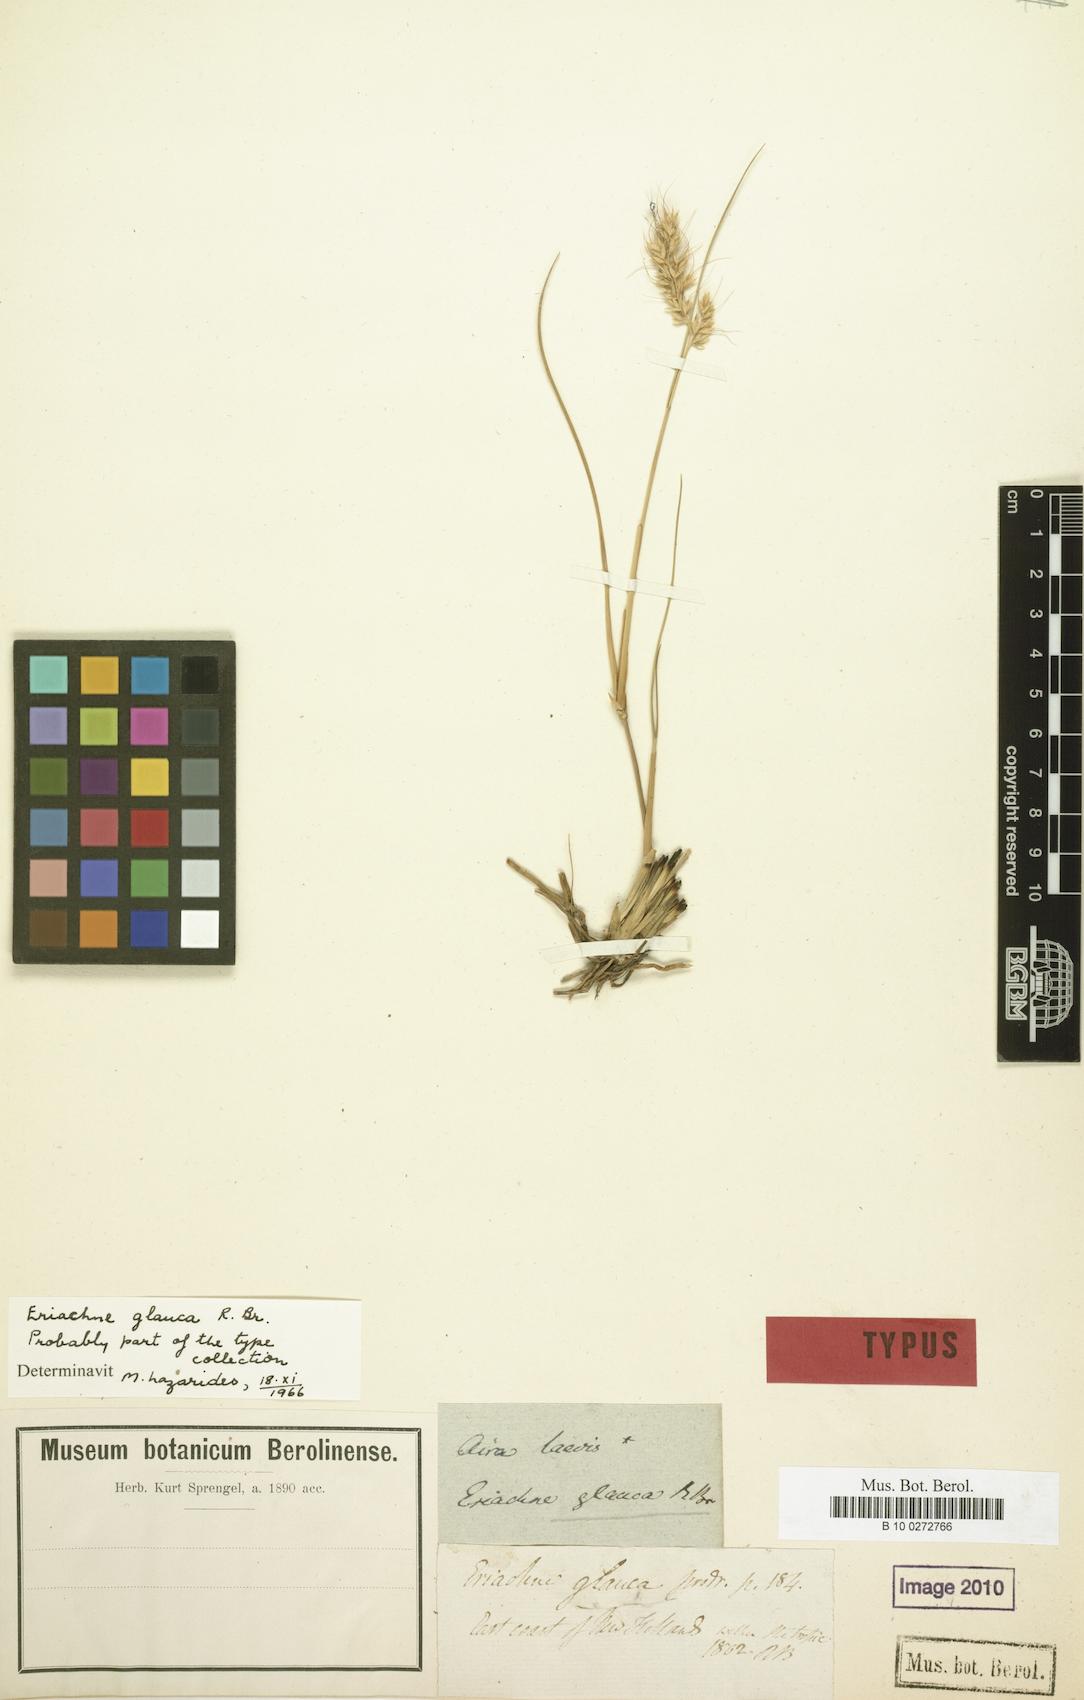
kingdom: Plantae
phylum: Tracheophyta
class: Liliopsida
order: Poales
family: Poaceae
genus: Eriachne
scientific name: Eriachne glauca
